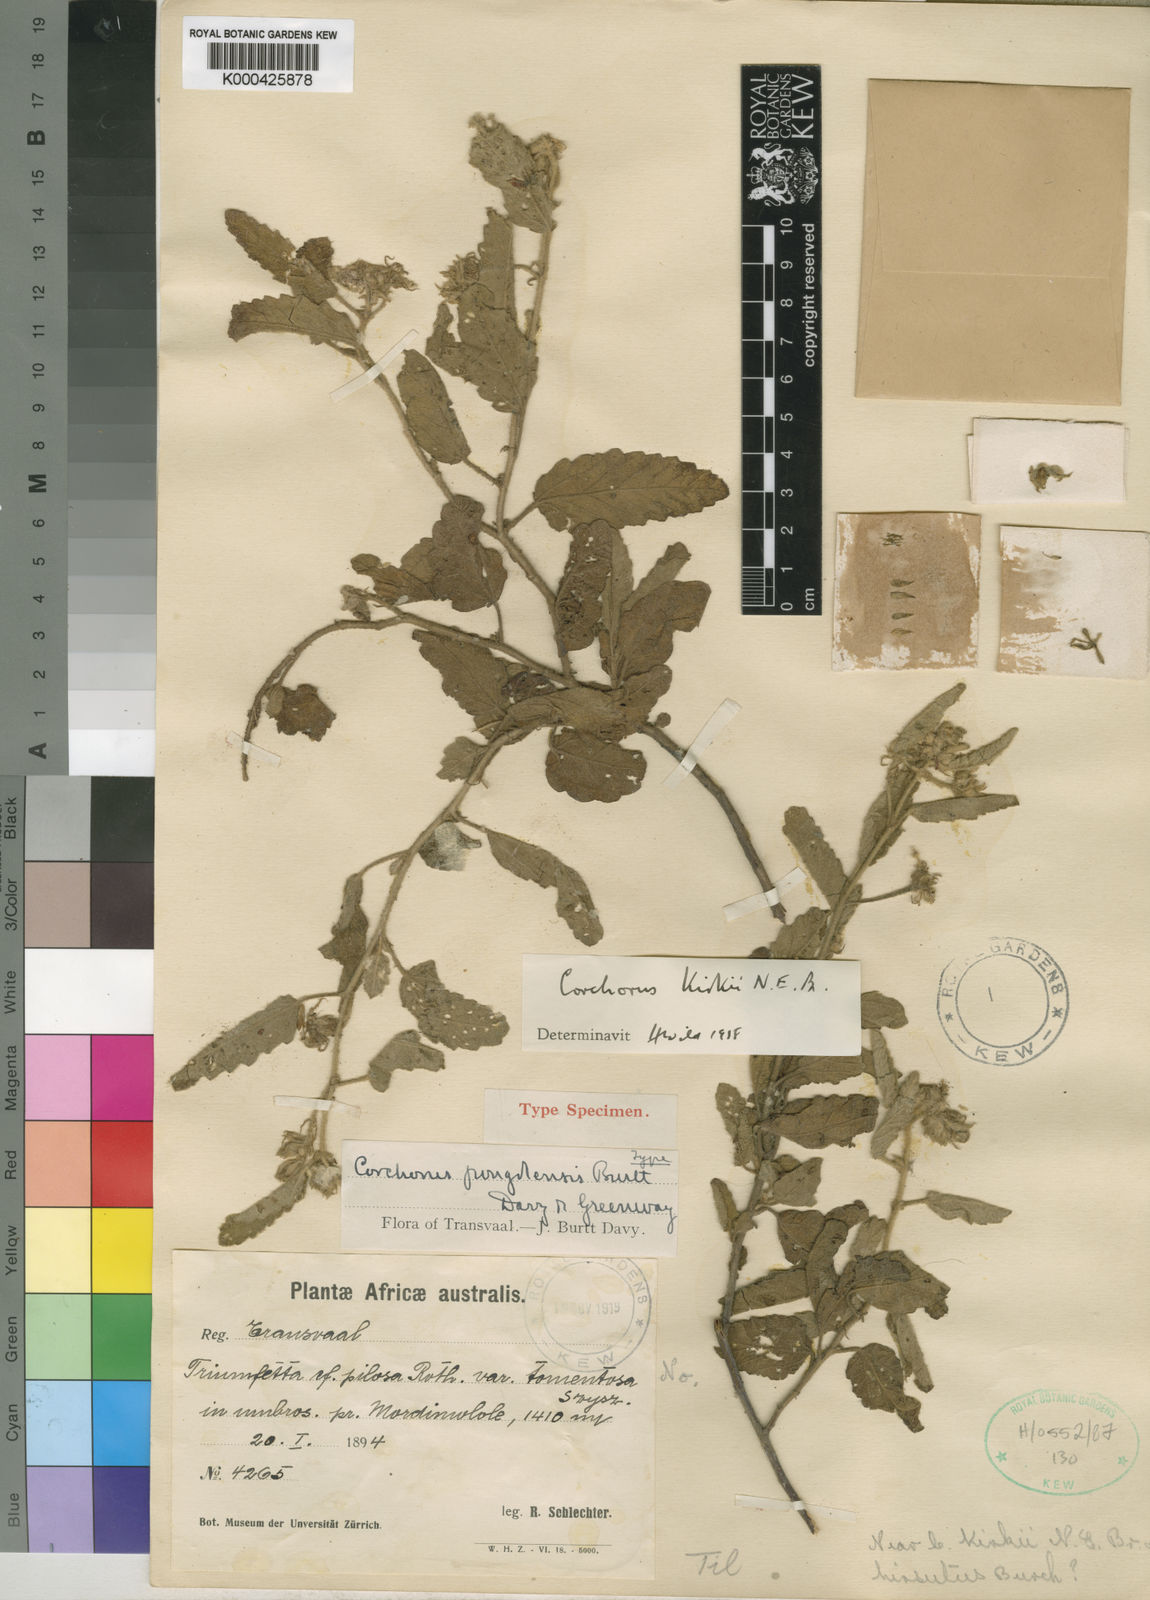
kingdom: Plantae
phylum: Tracheophyta
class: Magnoliopsida
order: Malvales
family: Malvaceae
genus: Corchorus
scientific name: Corchorus kirkii
